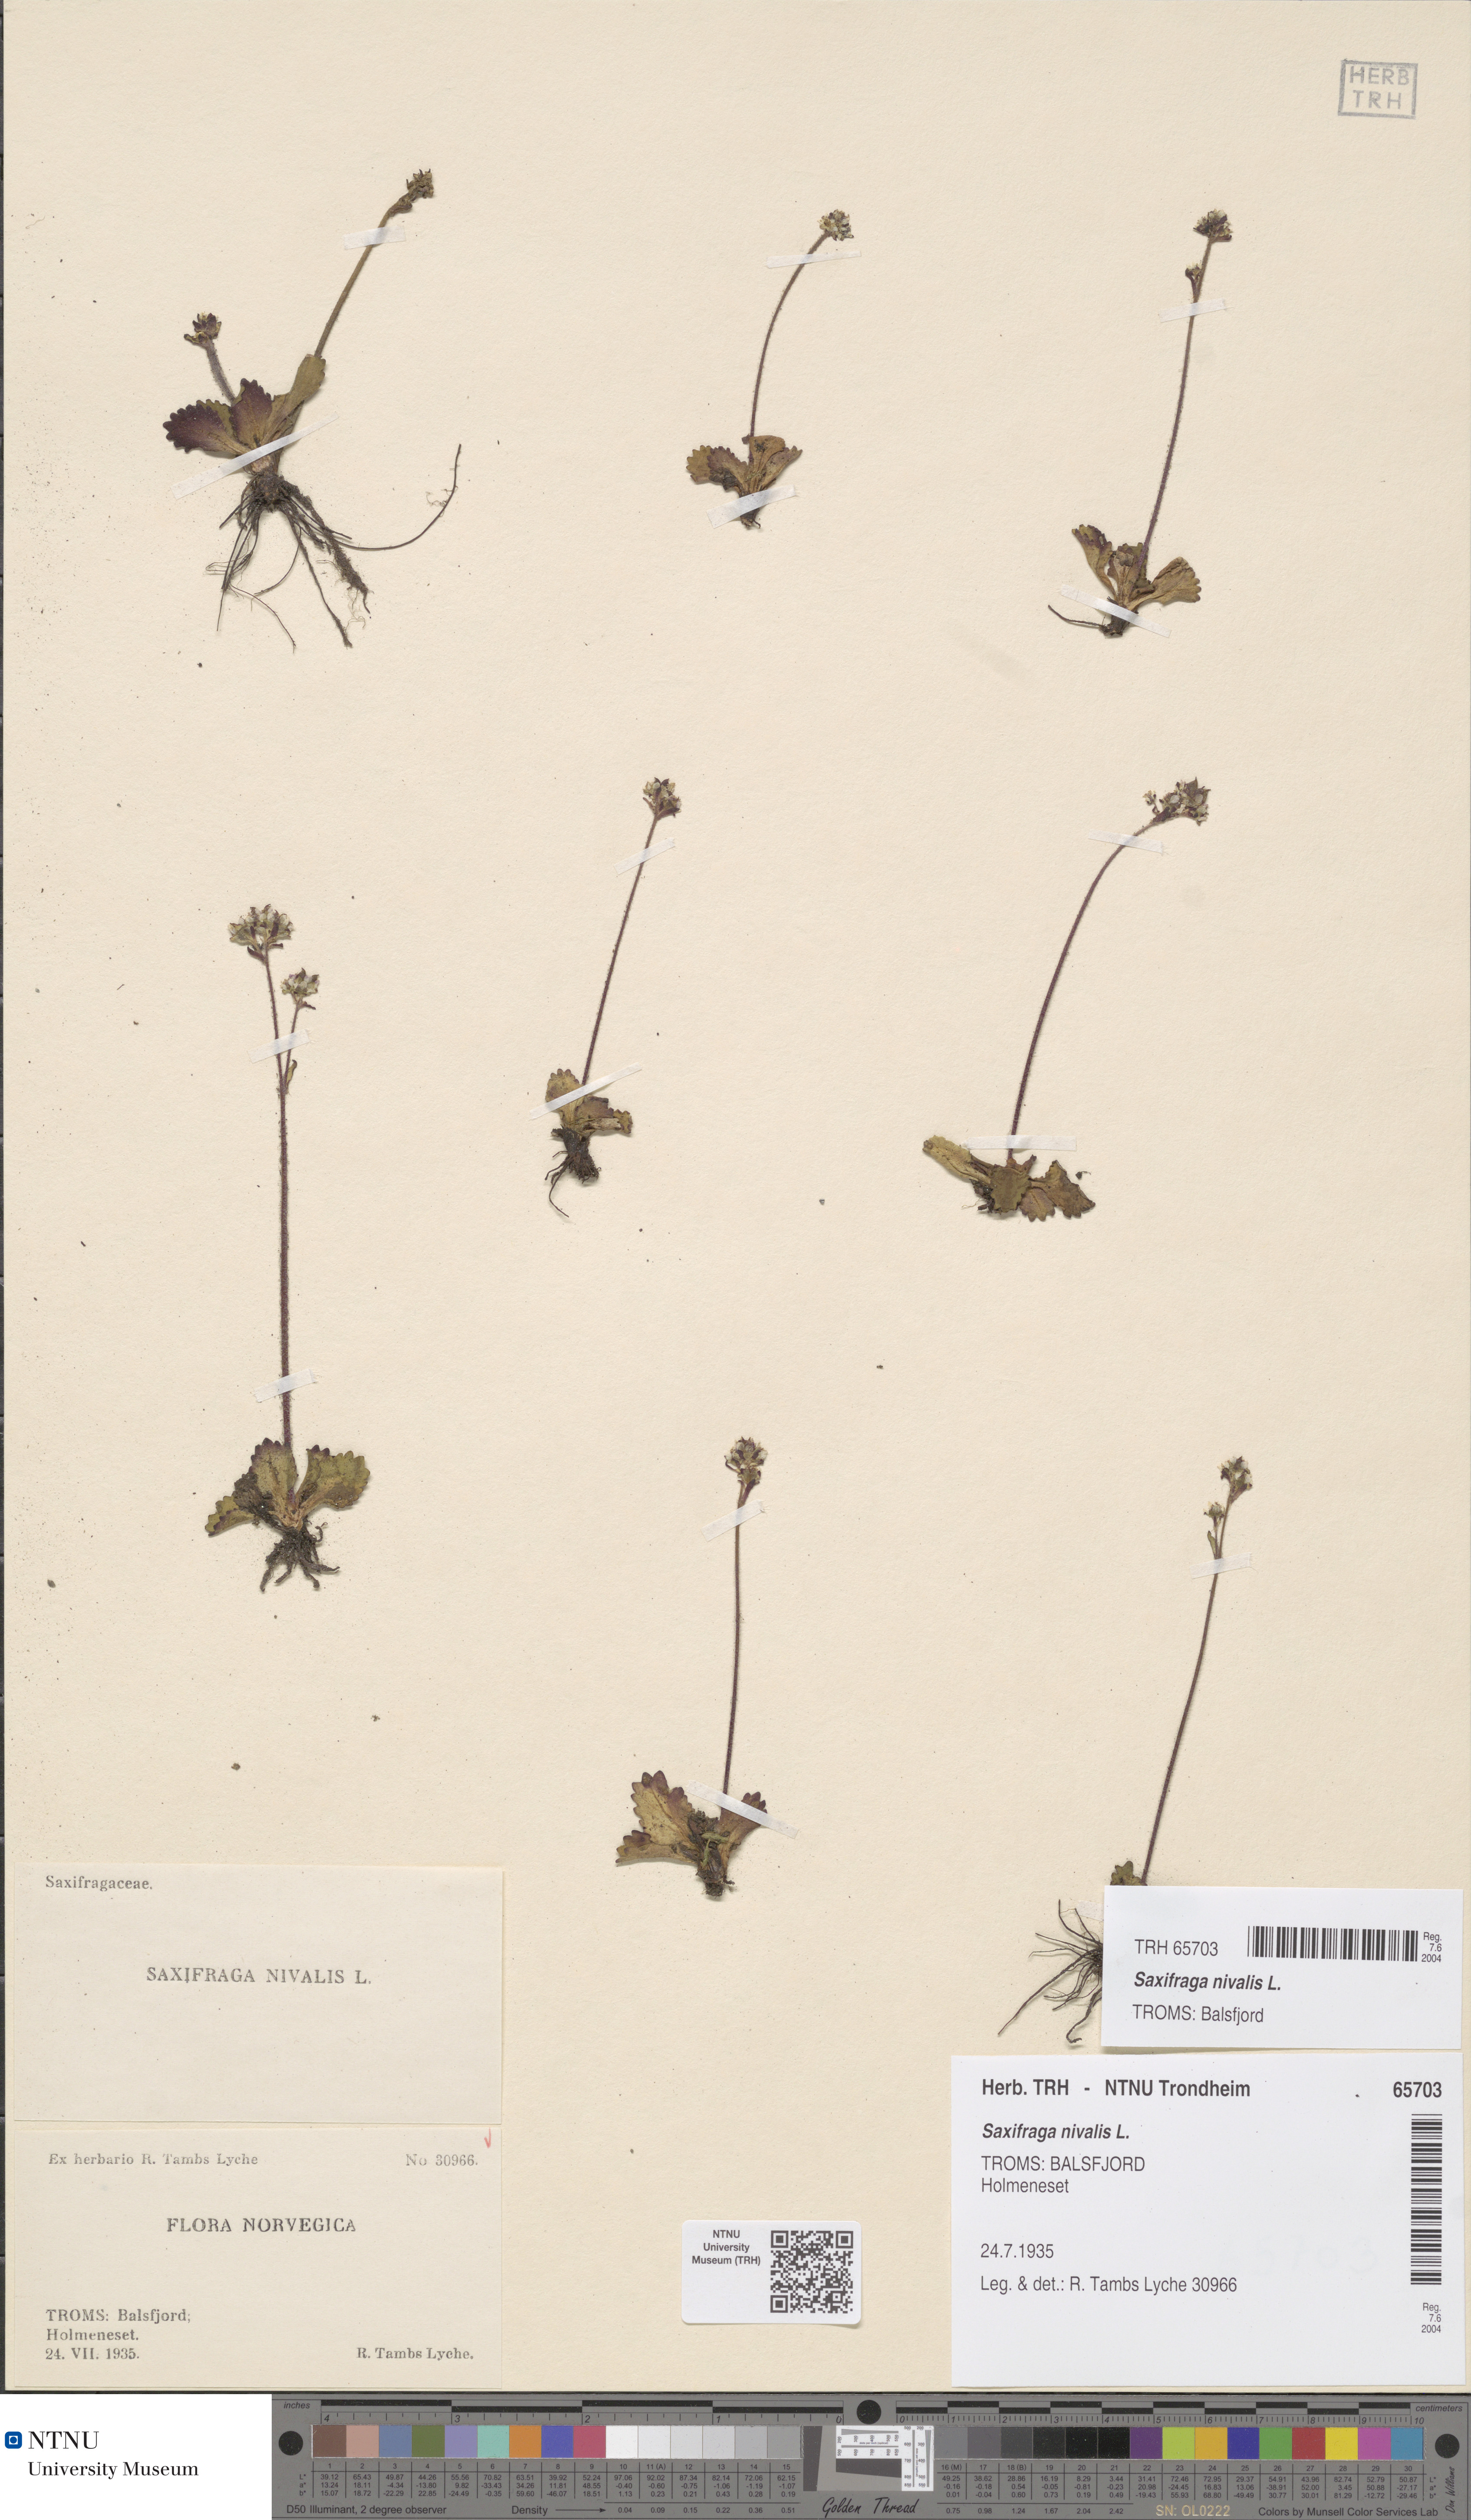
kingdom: Plantae
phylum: Tracheophyta
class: Magnoliopsida
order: Saxifragales
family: Saxifragaceae
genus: Micranthes
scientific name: Micranthes nivalis
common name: Alpine saxifrage
